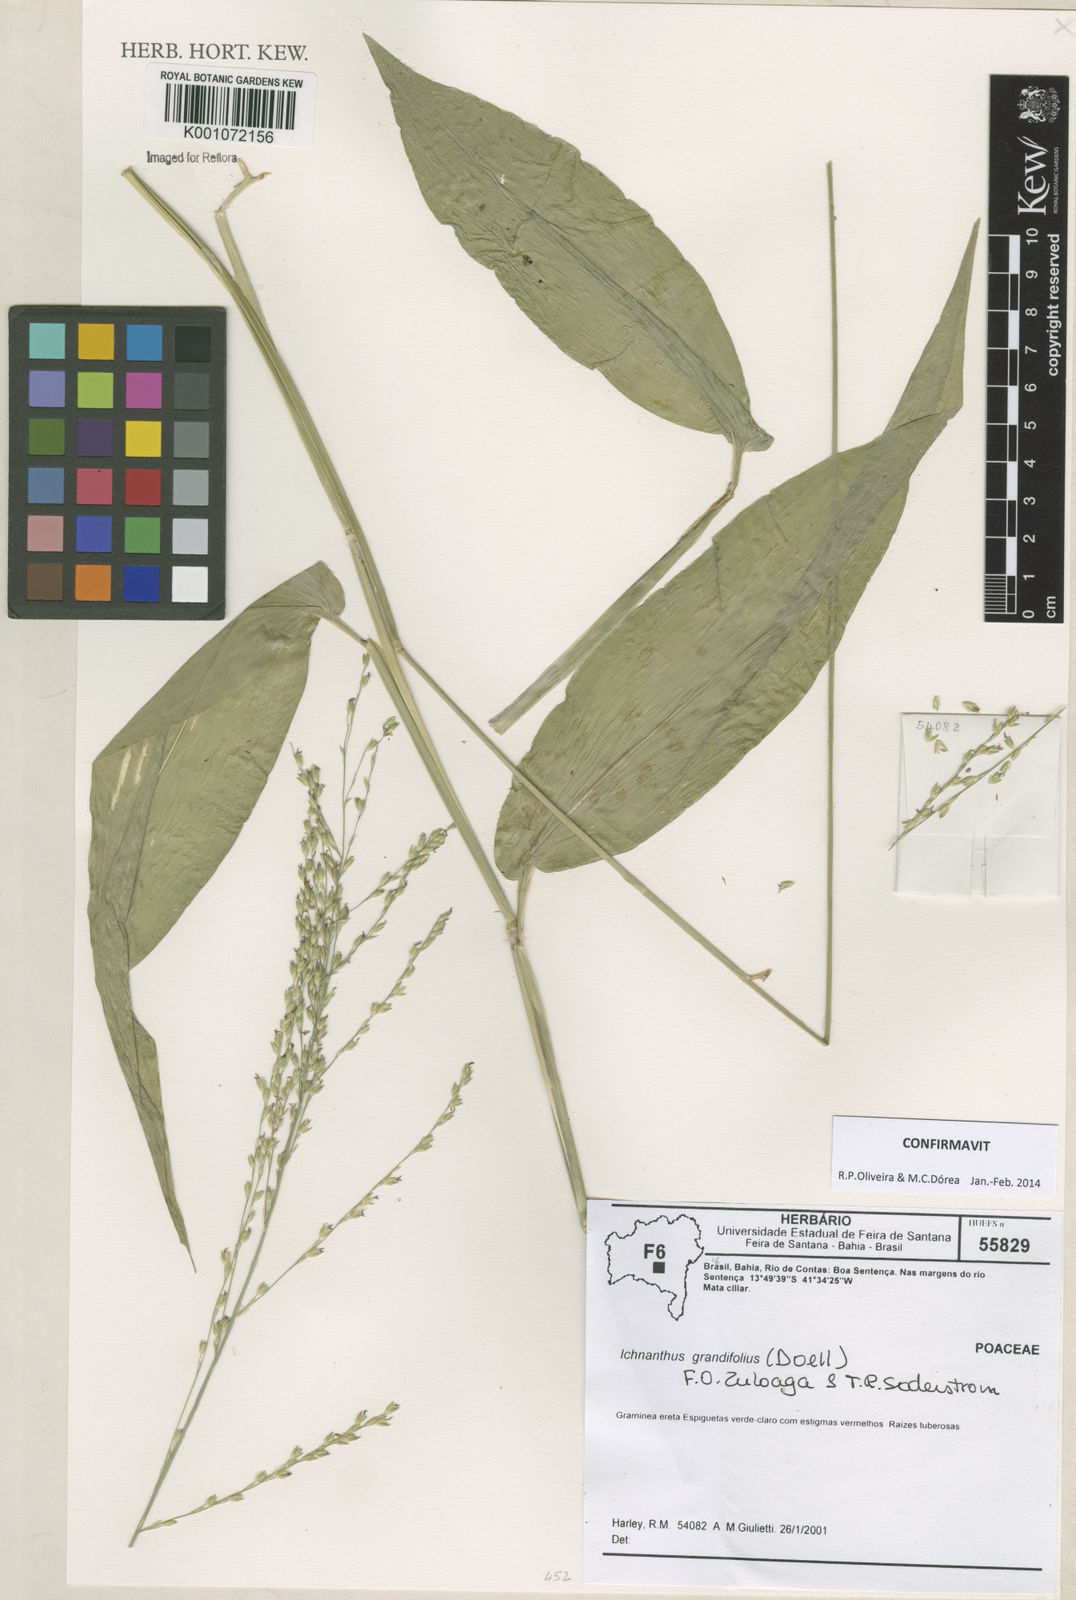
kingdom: Plantae
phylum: Tracheophyta
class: Liliopsida
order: Poales
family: Poaceae
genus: Ichnanthus
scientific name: Ichnanthus
